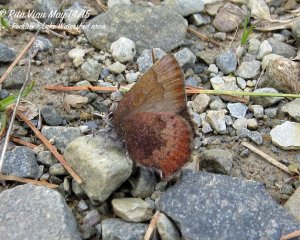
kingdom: Animalia
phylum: Arthropoda
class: Insecta
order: Lepidoptera
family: Lycaenidae
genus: Incisalia
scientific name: Incisalia irioides
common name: Brown Elfin
